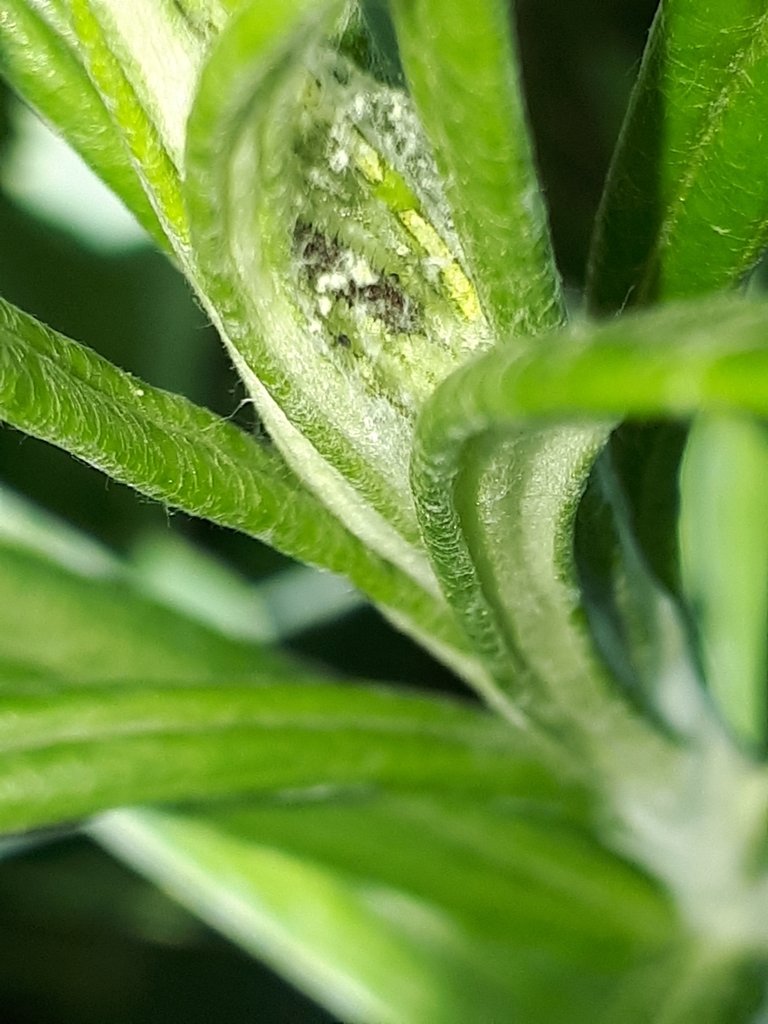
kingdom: Animalia
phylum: Arthropoda
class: Insecta
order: Lepidoptera
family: Nymphalidae
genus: Vanessa
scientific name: Vanessa virginiensis
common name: American Lady
